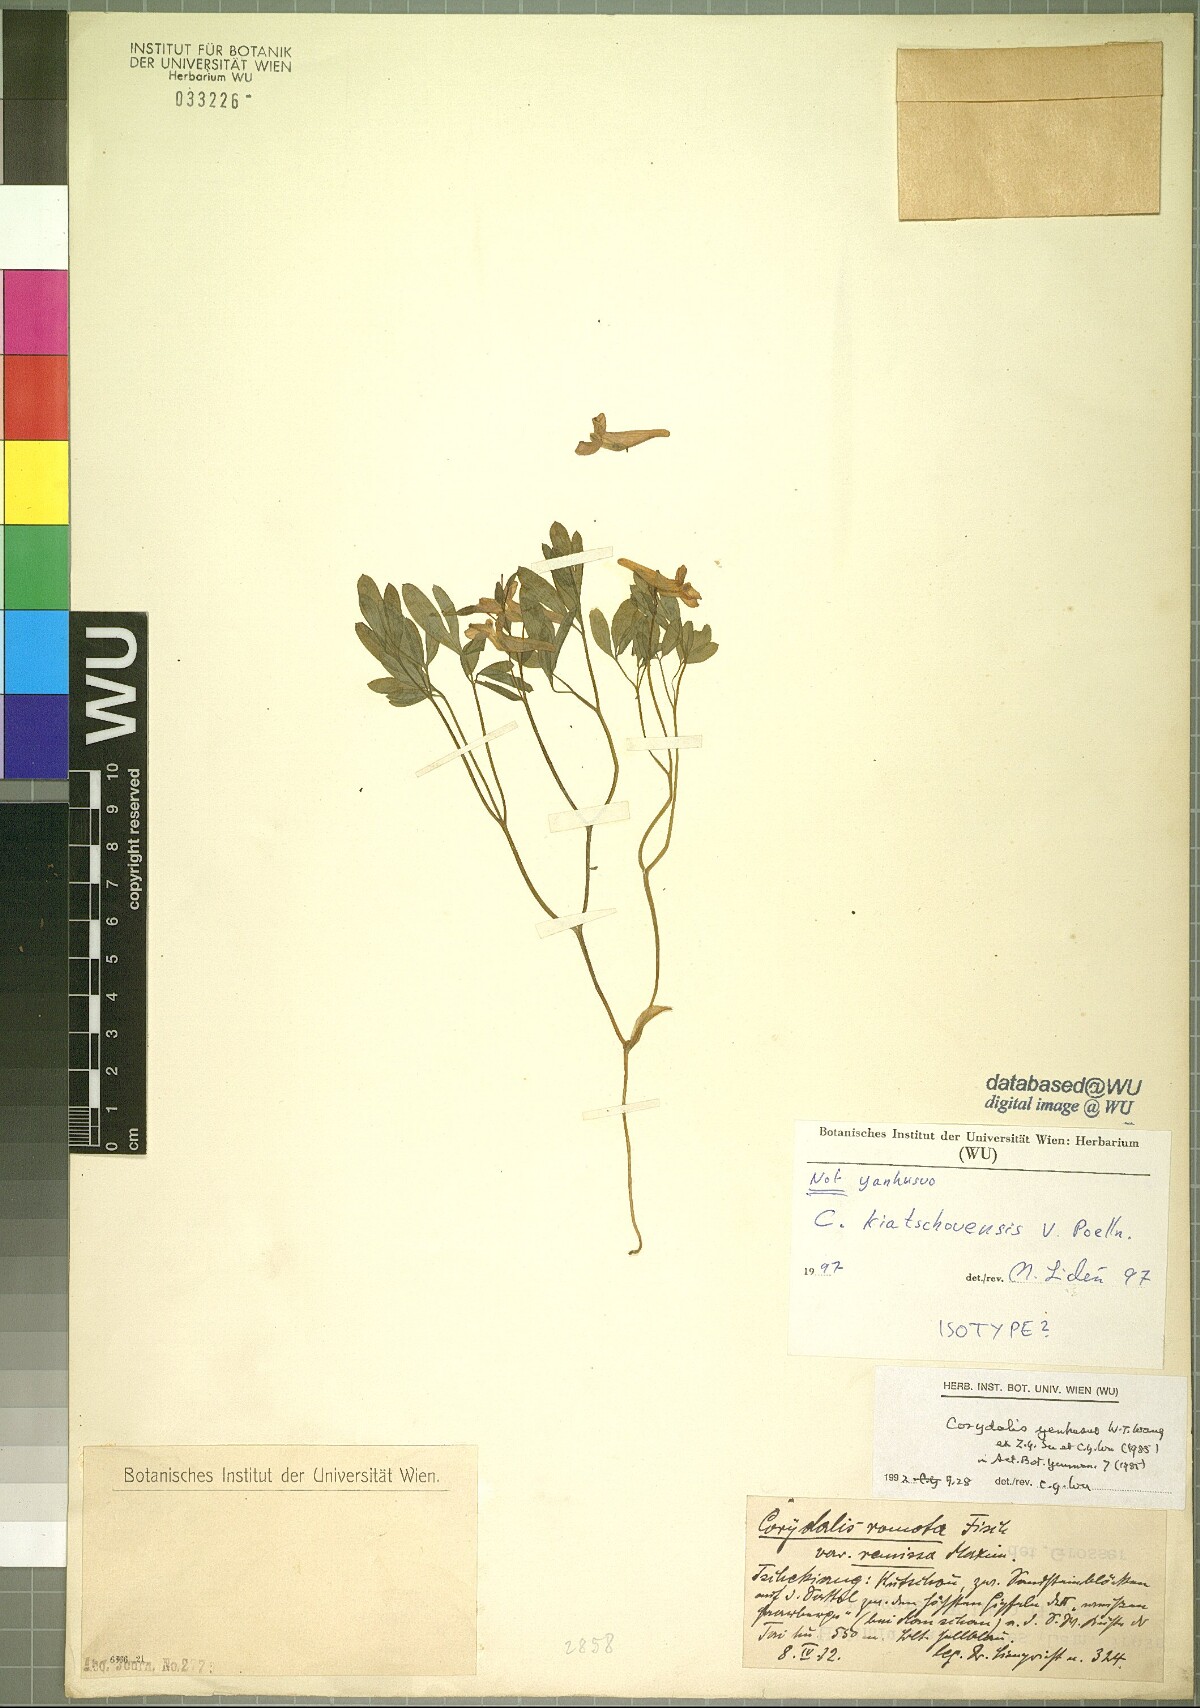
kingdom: Plantae
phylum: Tracheophyta
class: Magnoliopsida
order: Ranunculales
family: Papaveraceae
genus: Corydalis
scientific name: Corydalis kiautschouensis
